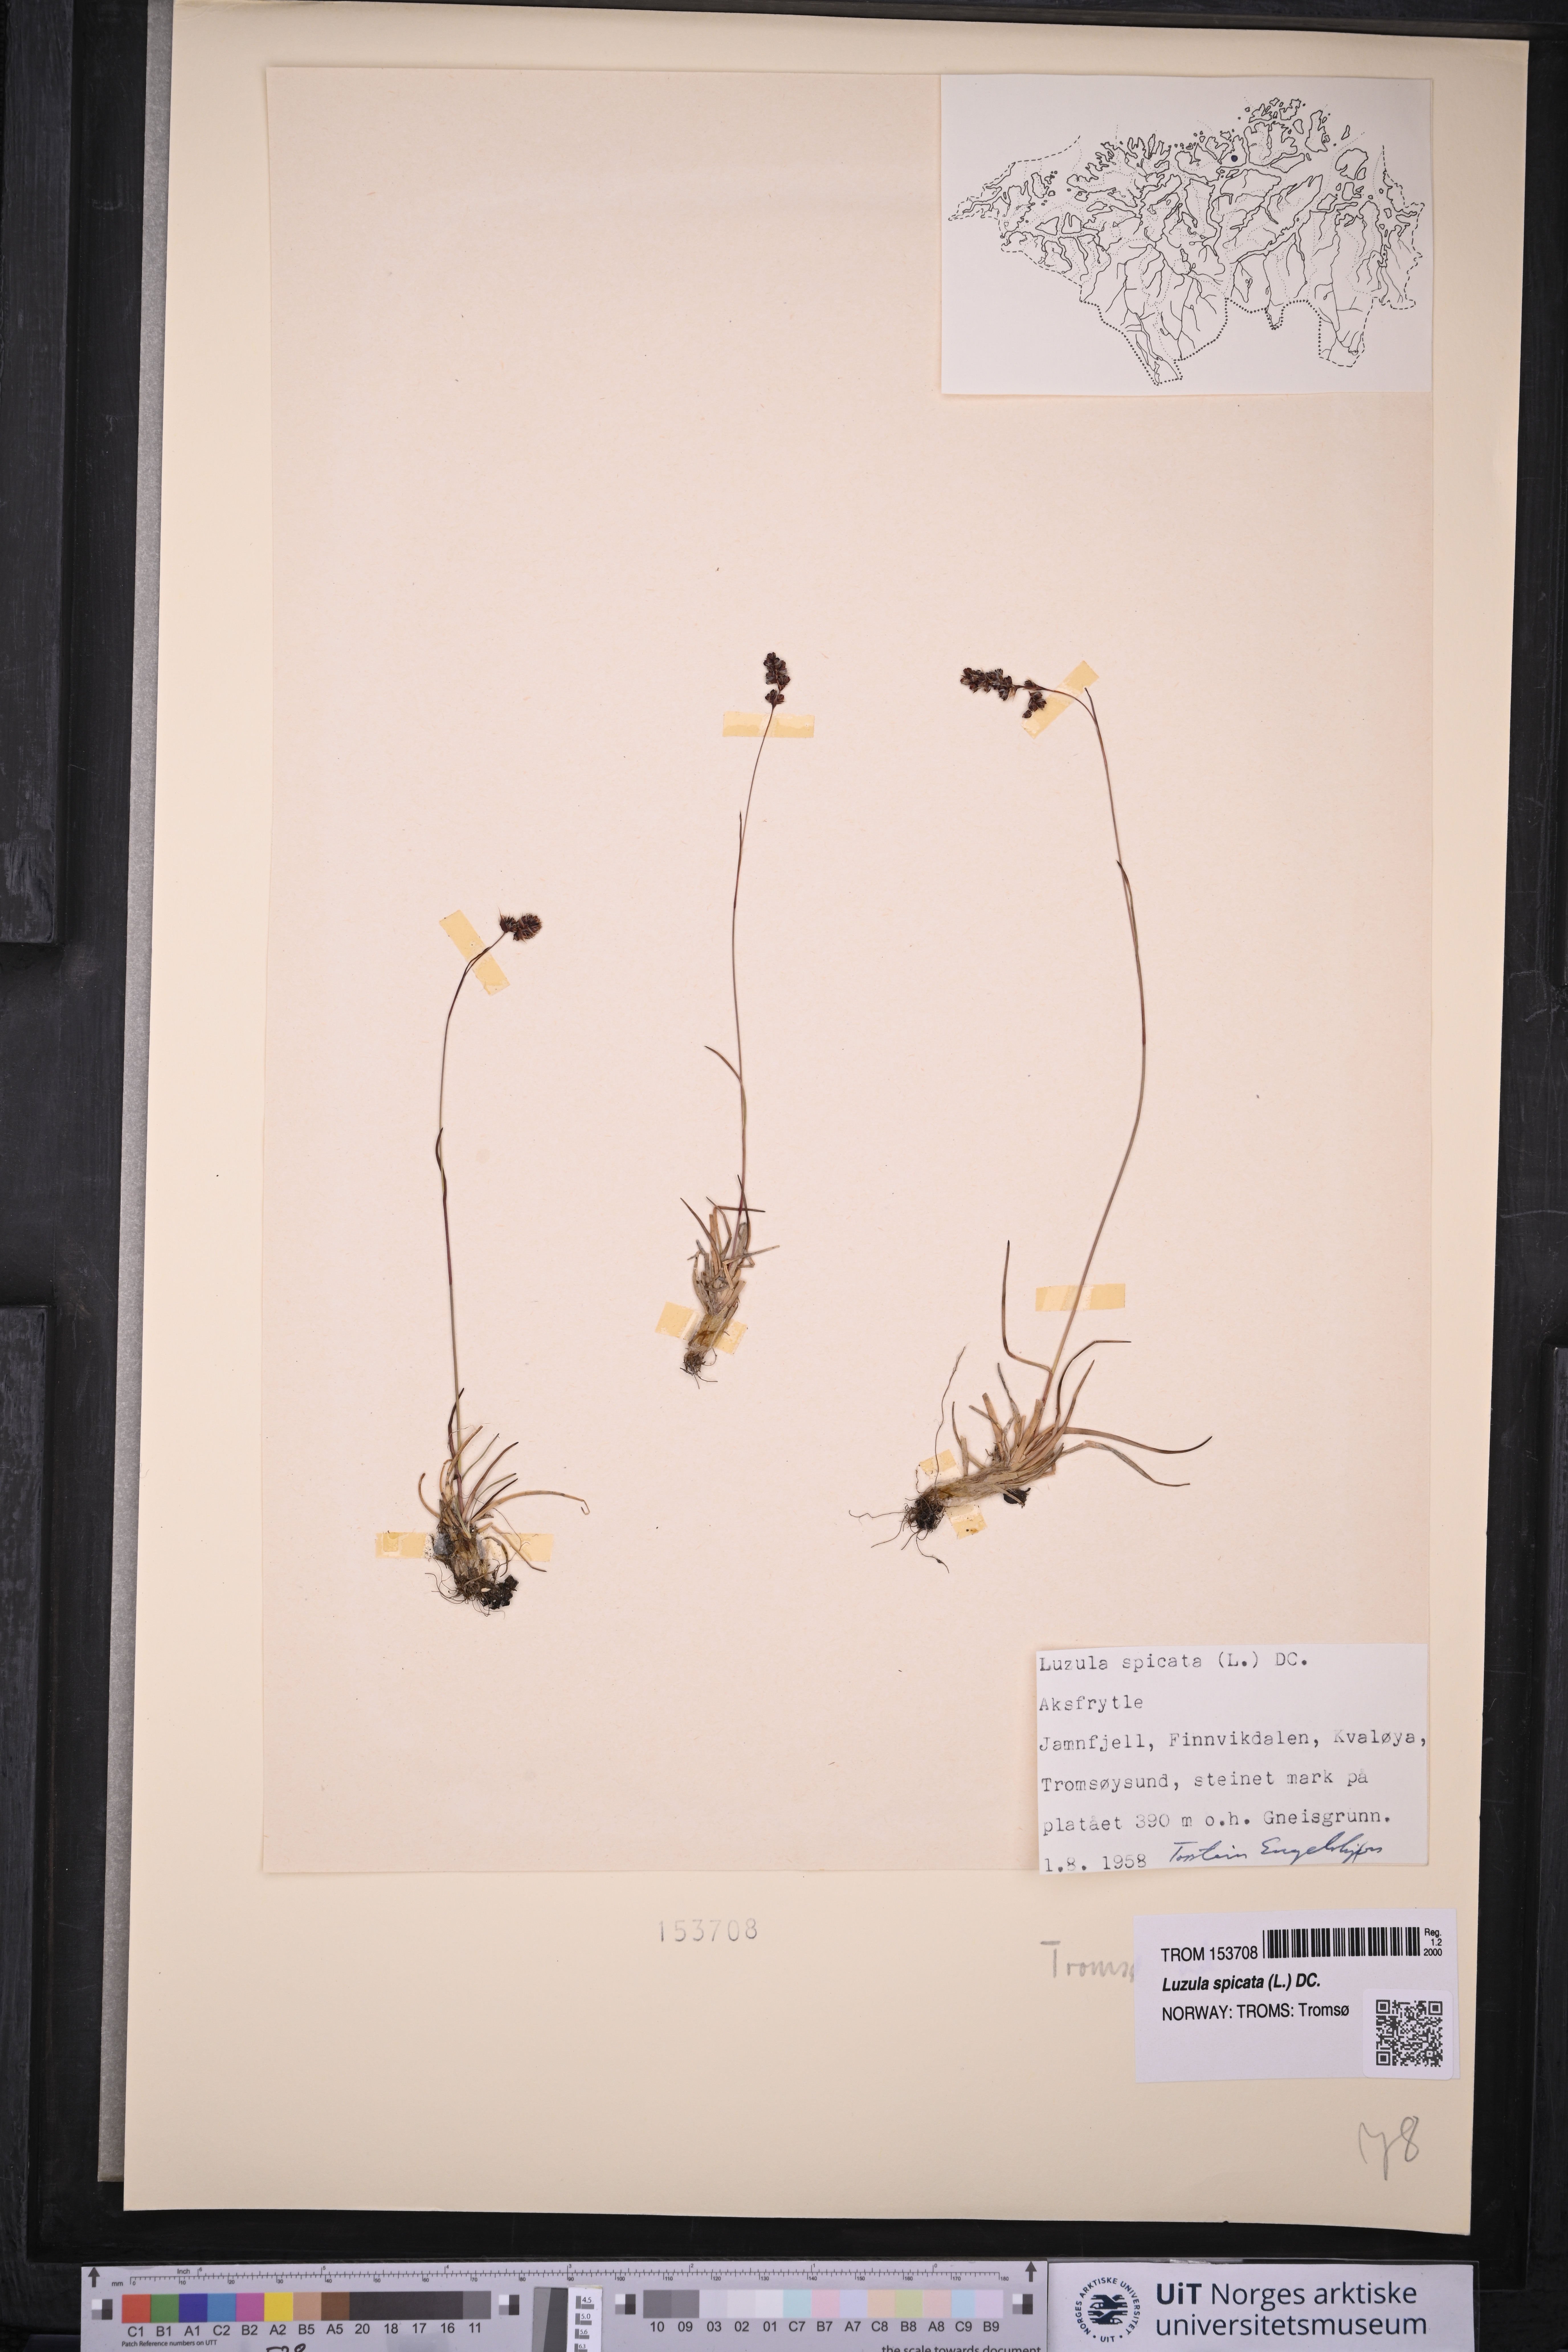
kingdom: Plantae
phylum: Tracheophyta
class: Liliopsida
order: Poales
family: Juncaceae
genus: Luzula
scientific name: Luzula spicata
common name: Spiked wood-rush
